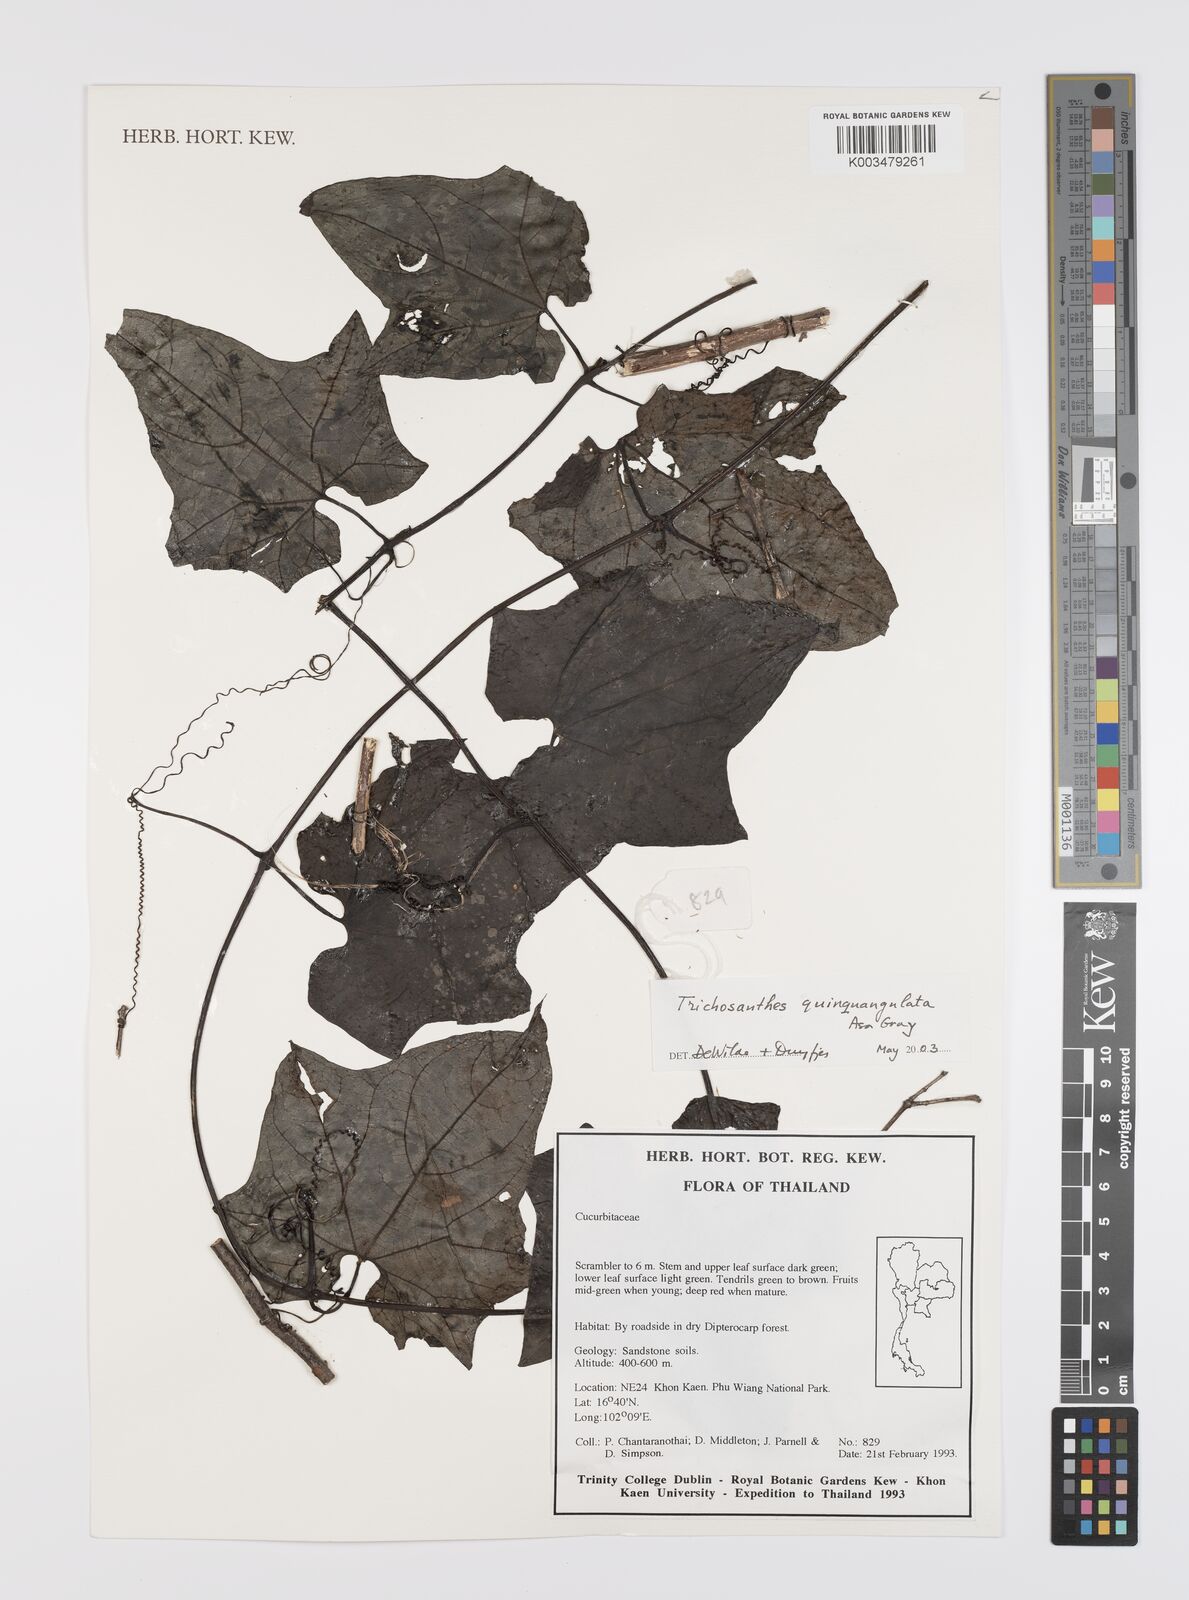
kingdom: Plantae
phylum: Tracheophyta
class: Magnoliopsida
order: Cucurbitales
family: Cucurbitaceae
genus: Trichosanthes
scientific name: Trichosanthes quinquangulata
